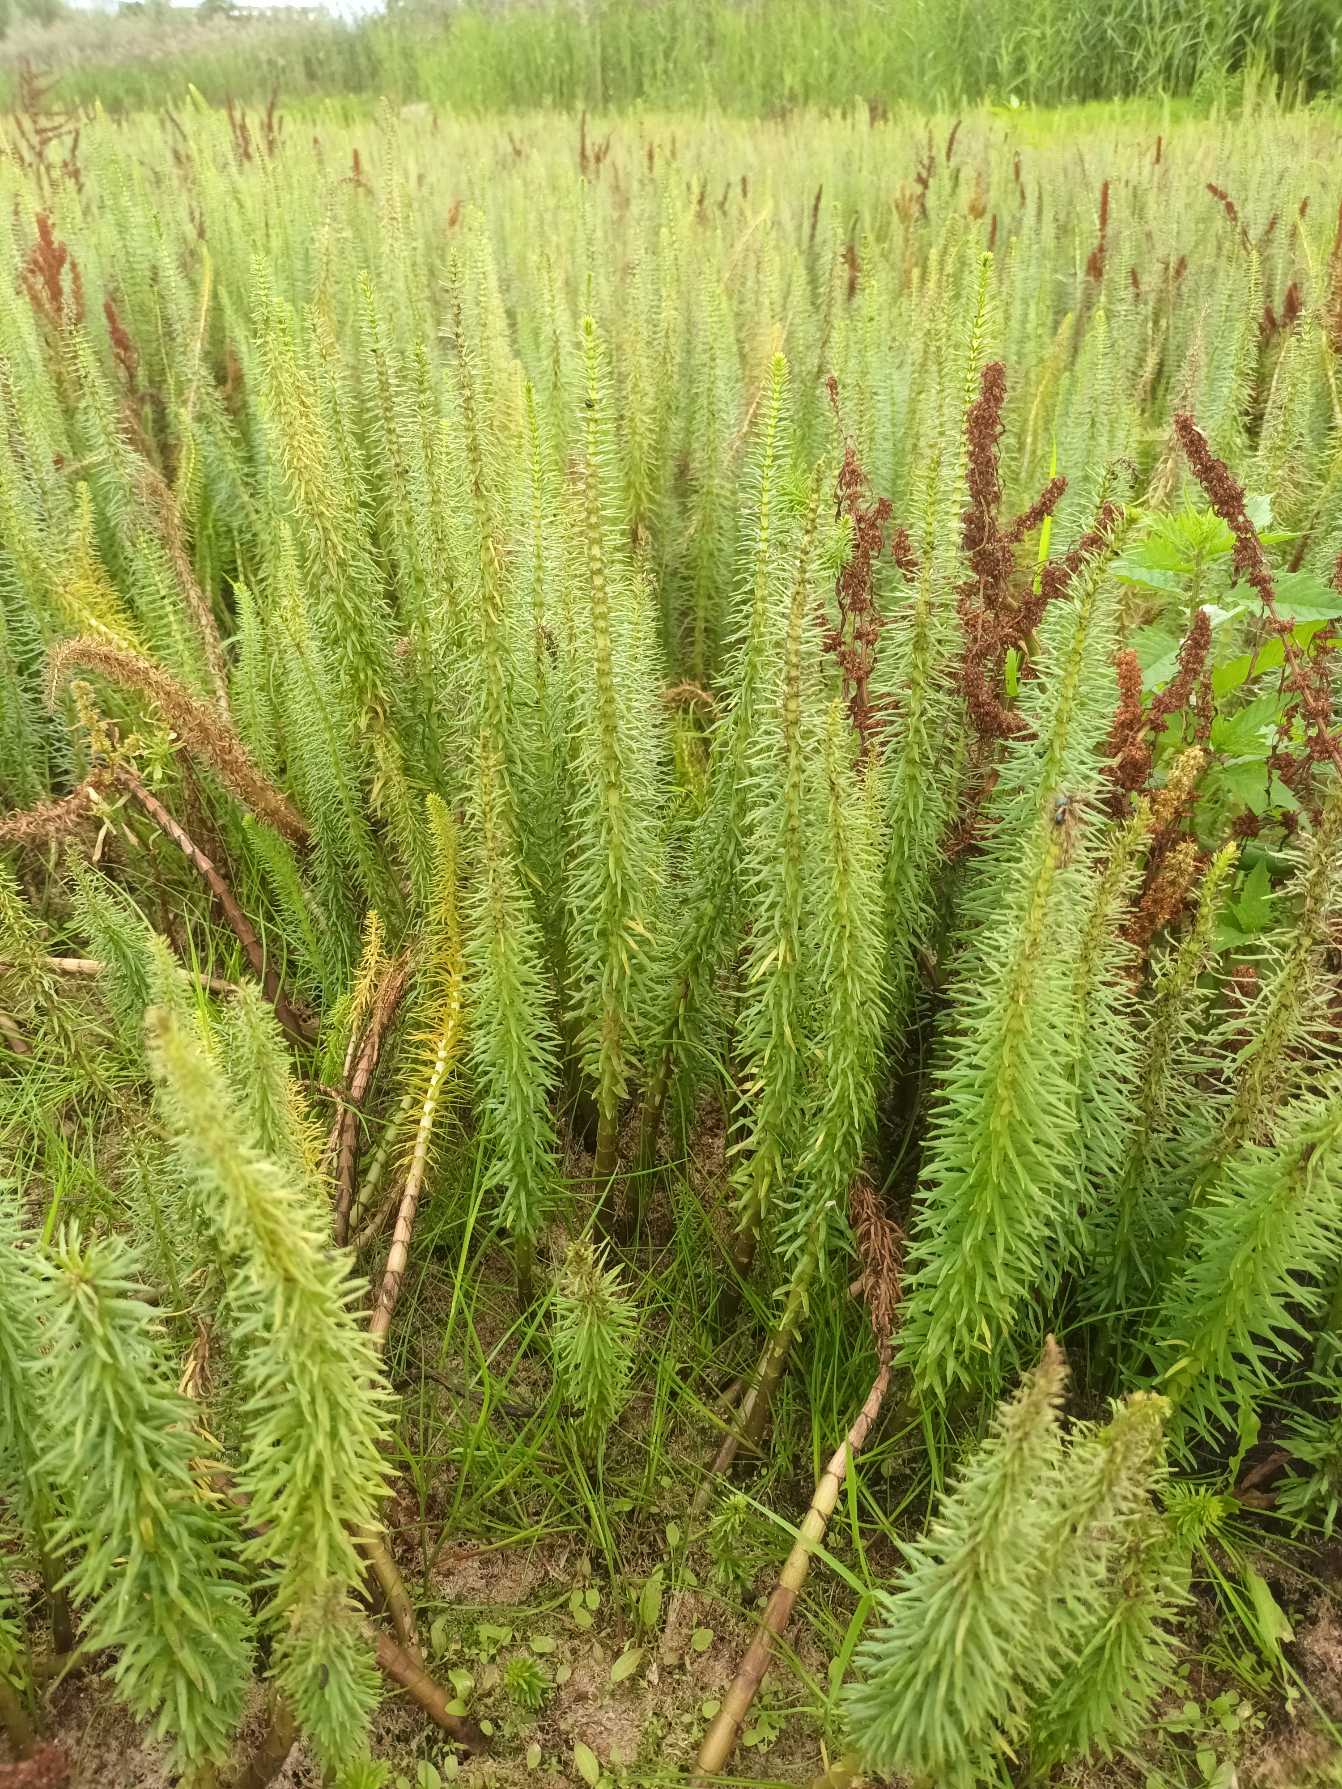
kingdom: Plantae
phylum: Tracheophyta
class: Magnoliopsida
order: Lamiales
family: Plantaginaceae
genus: Hippuris
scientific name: Hippuris vulgaris
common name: Vandspir
